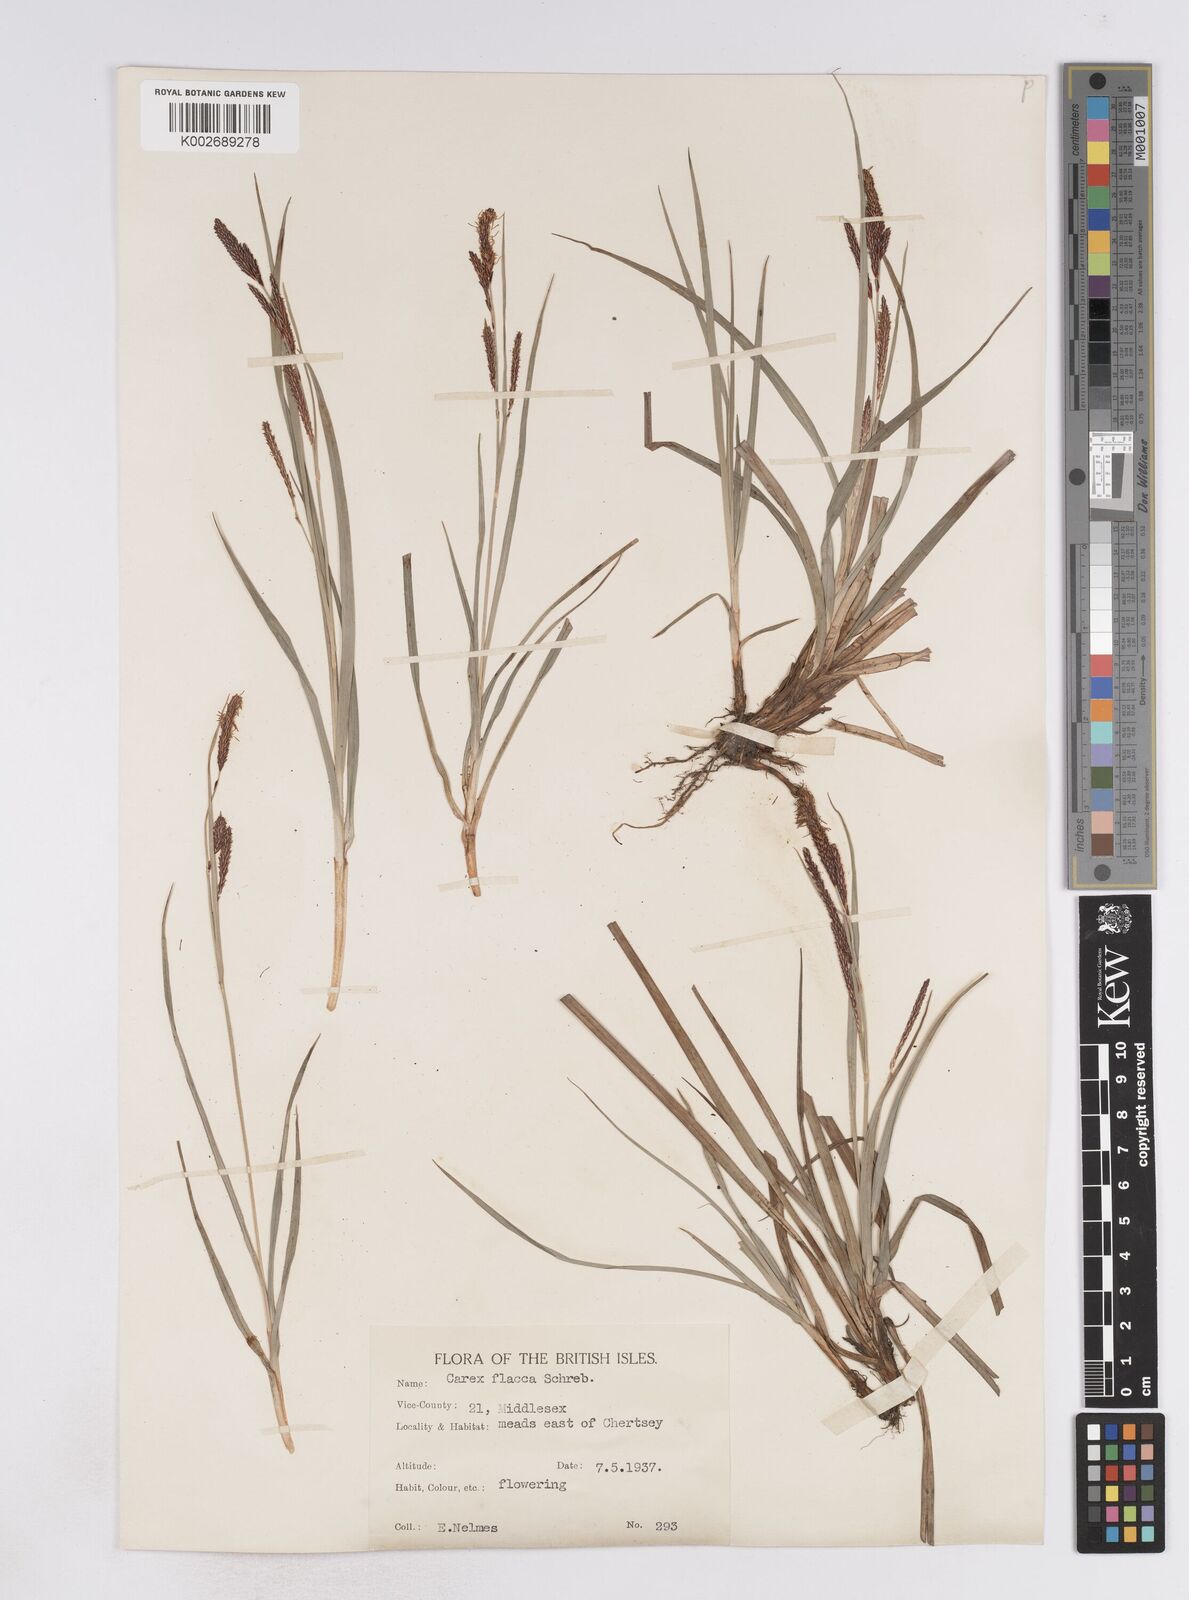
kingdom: Plantae
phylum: Tracheophyta
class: Liliopsida
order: Poales
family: Cyperaceae
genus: Carex
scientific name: Carex flacca
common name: Glaucous sedge
